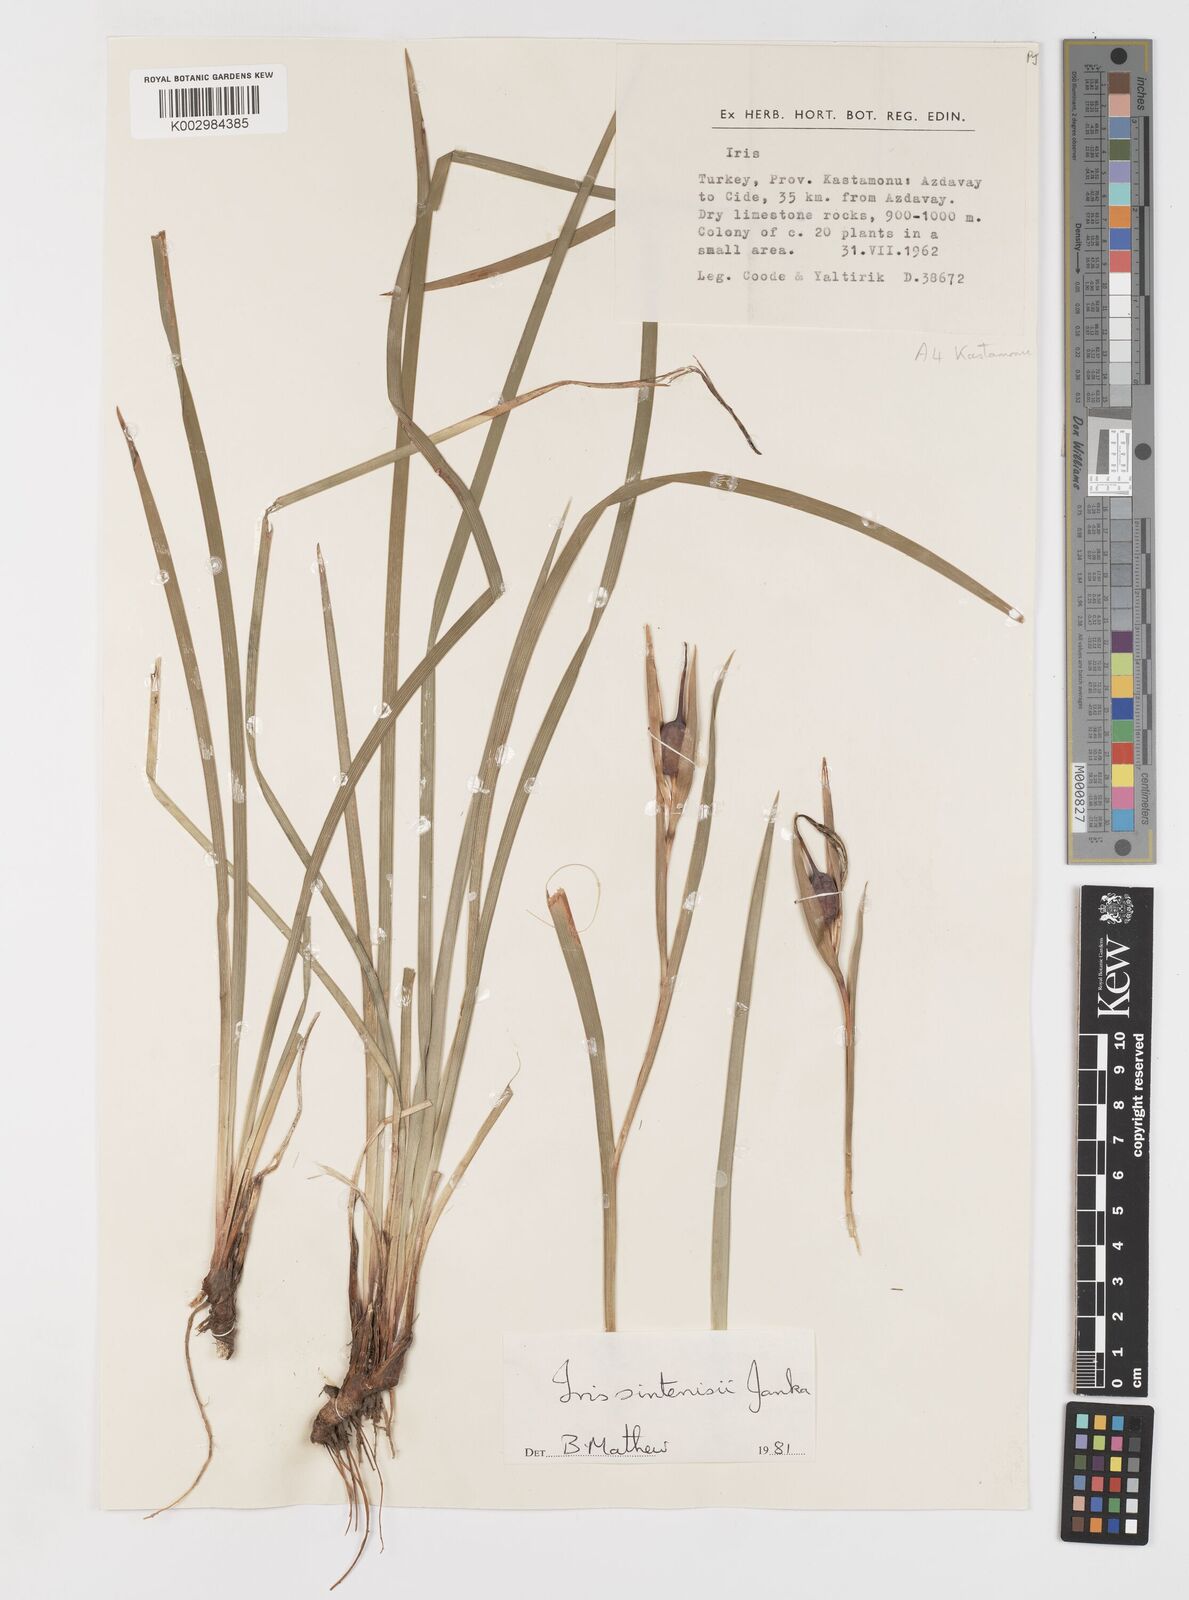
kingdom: Plantae
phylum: Tracheophyta
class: Liliopsida
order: Asparagales
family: Iridaceae
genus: Iris
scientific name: Iris sintenisii
